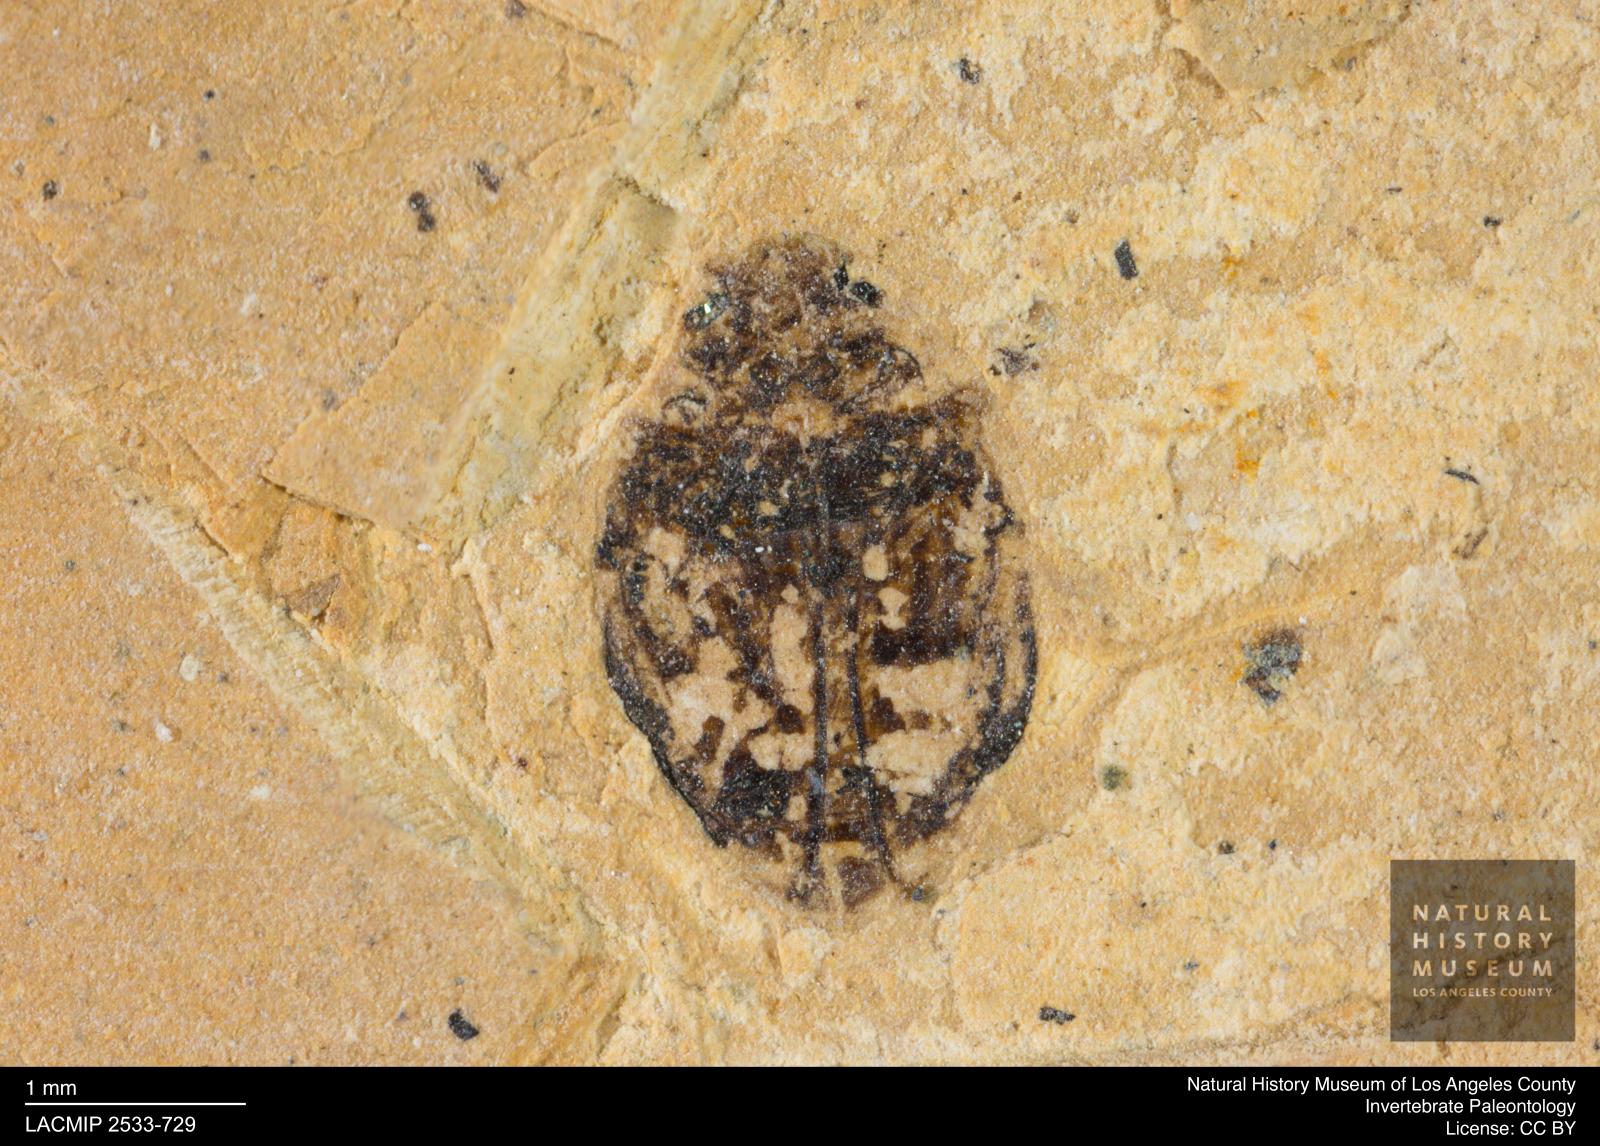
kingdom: Animalia
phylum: Arthropoda
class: Insecta
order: Coleoptera
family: Dytiscidae
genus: Oreodytes
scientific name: Oreodytes cryptolineatus
